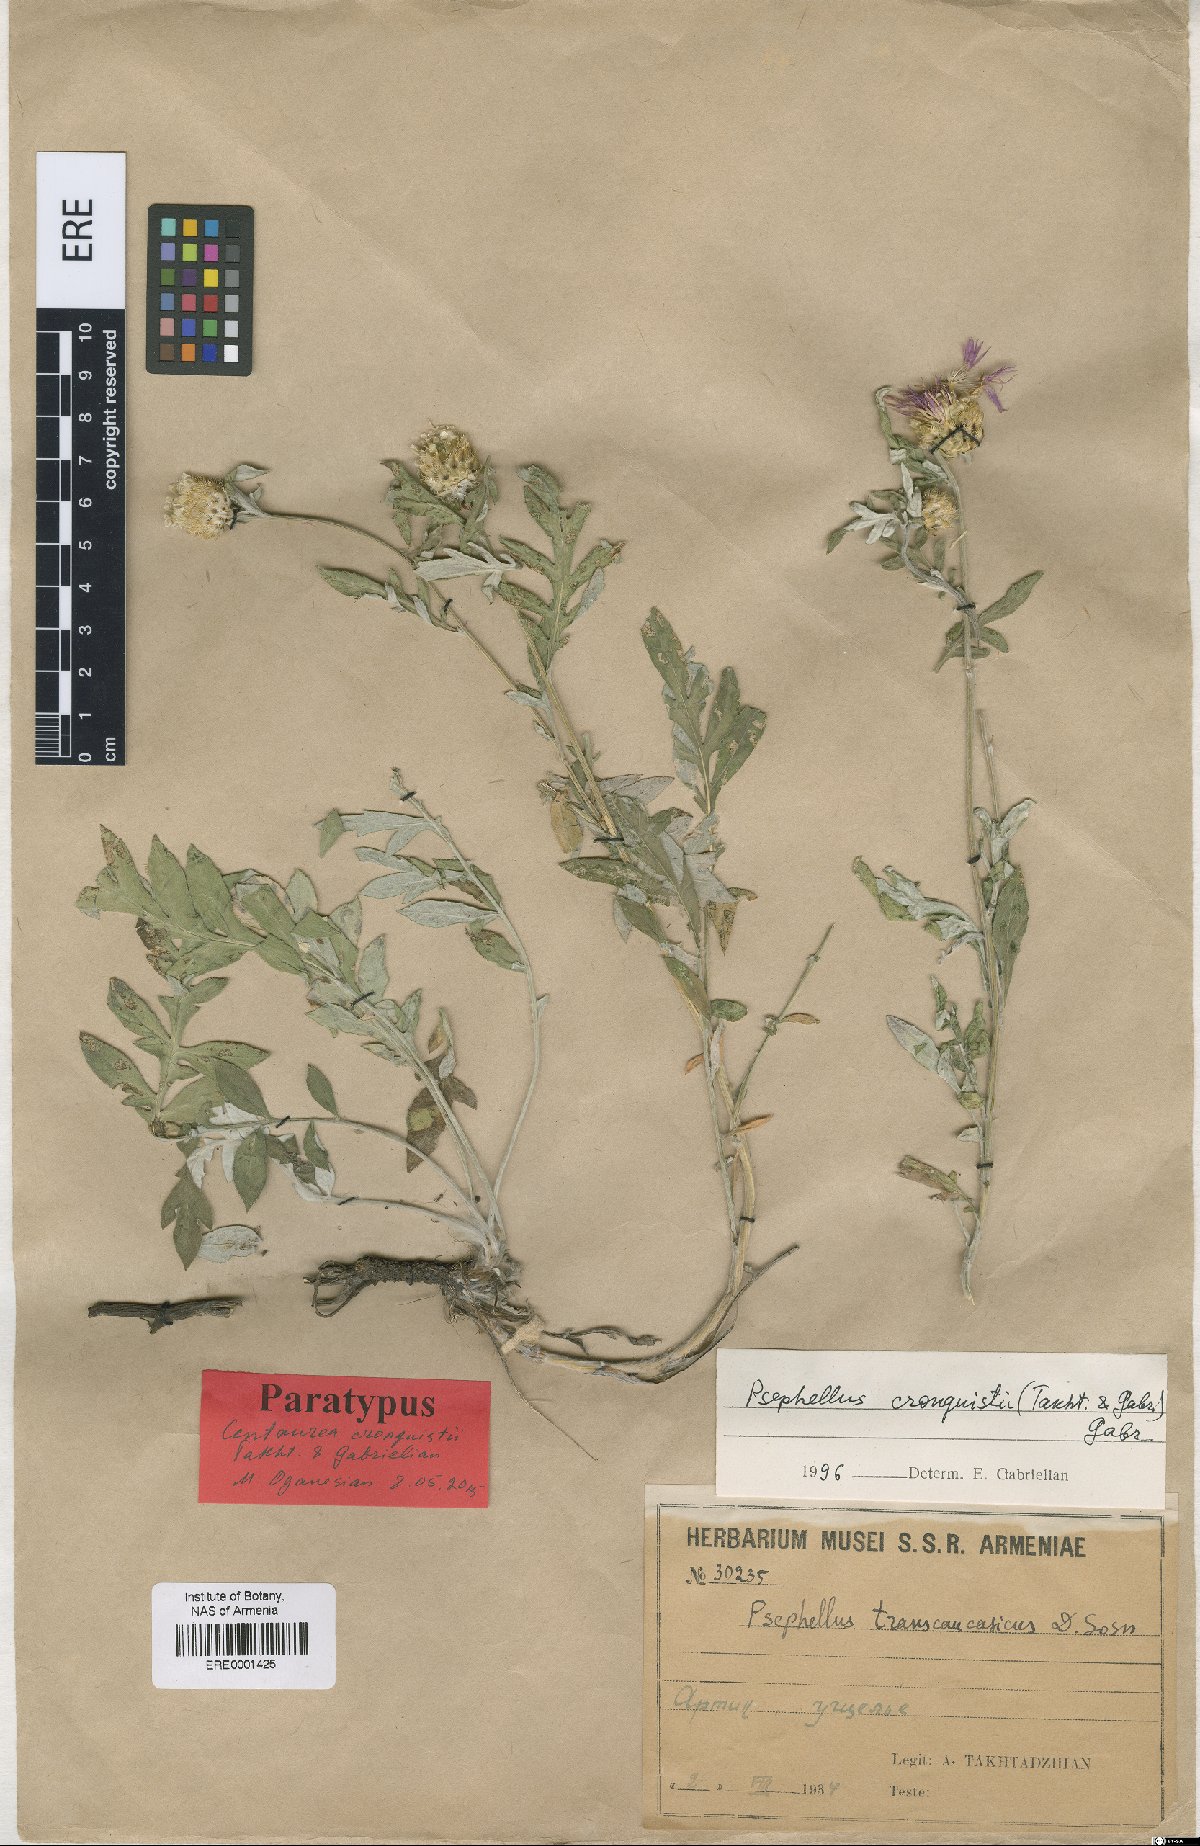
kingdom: Plantae
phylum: Tracheophyta
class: Magnoliopsida
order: Asterales
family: Asteraceae
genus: Psephellus
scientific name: Psephellus cronquistii
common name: Cronquists's cornflower
